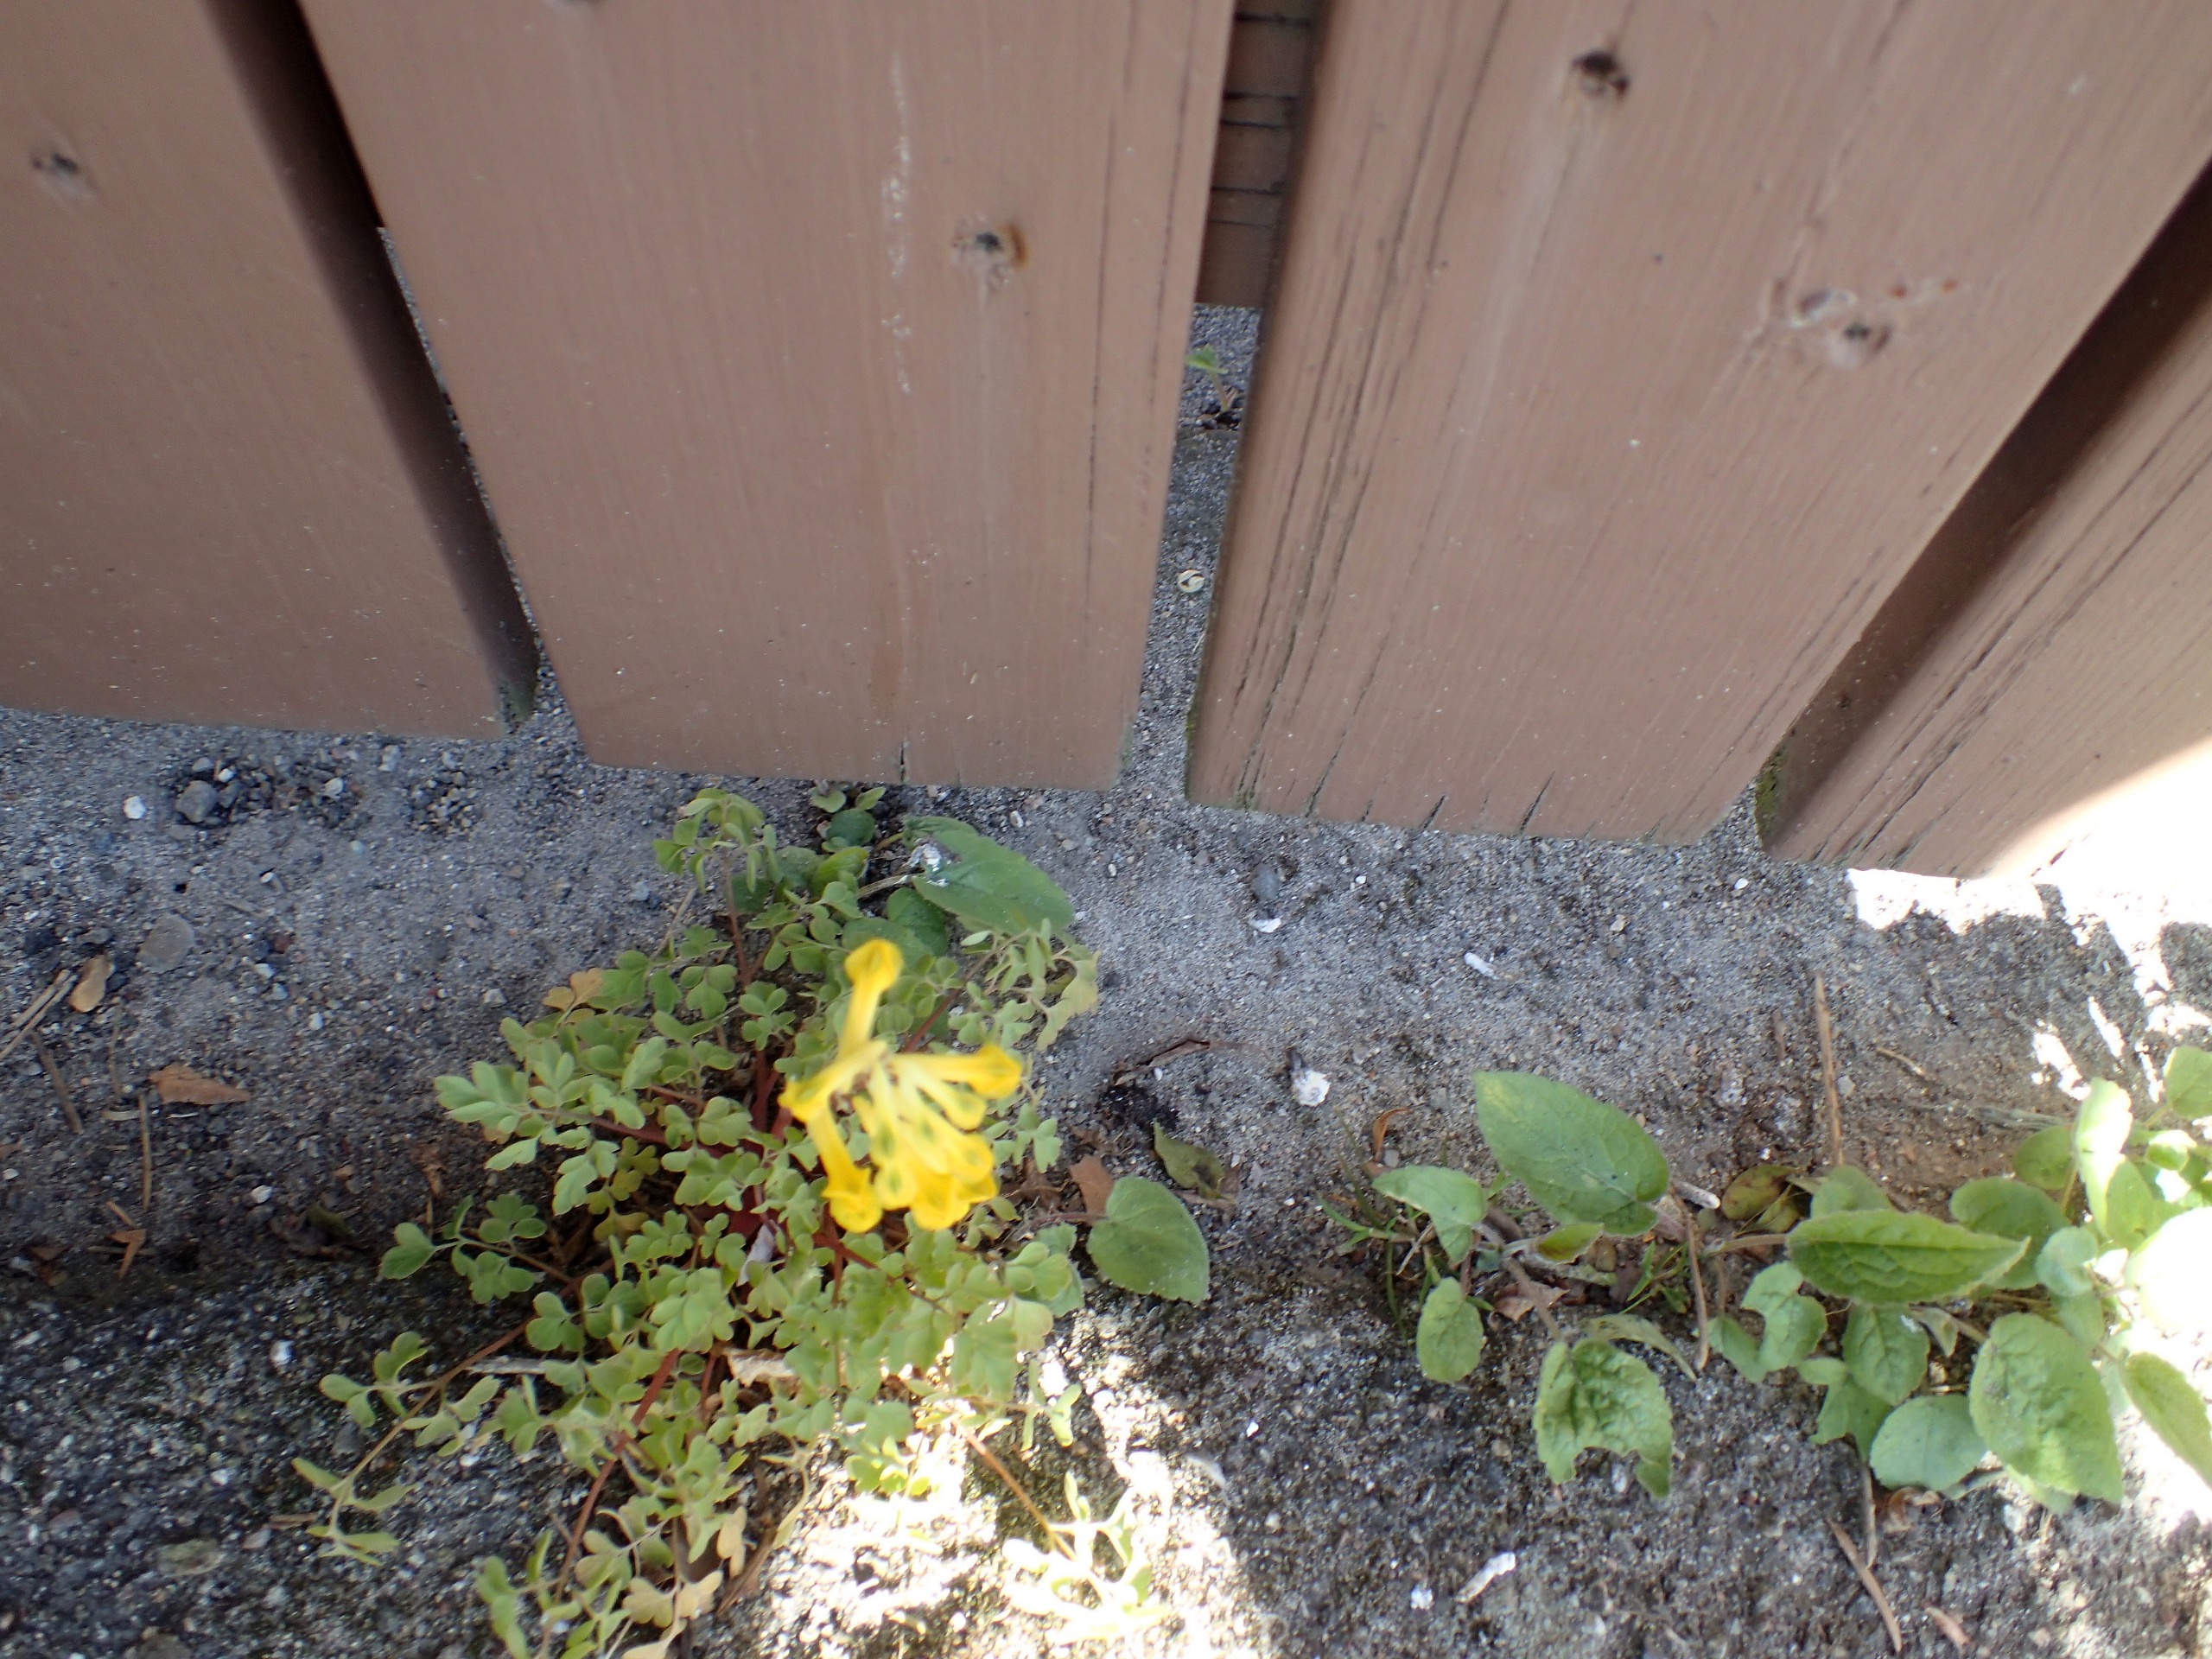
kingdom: Plantae
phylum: Tracheophyta
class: Magnoliopsida
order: Ranunculales
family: Papaveraceae
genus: Pseudofumaria
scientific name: Pseudofumaria lutea
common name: Gul lærkespore
